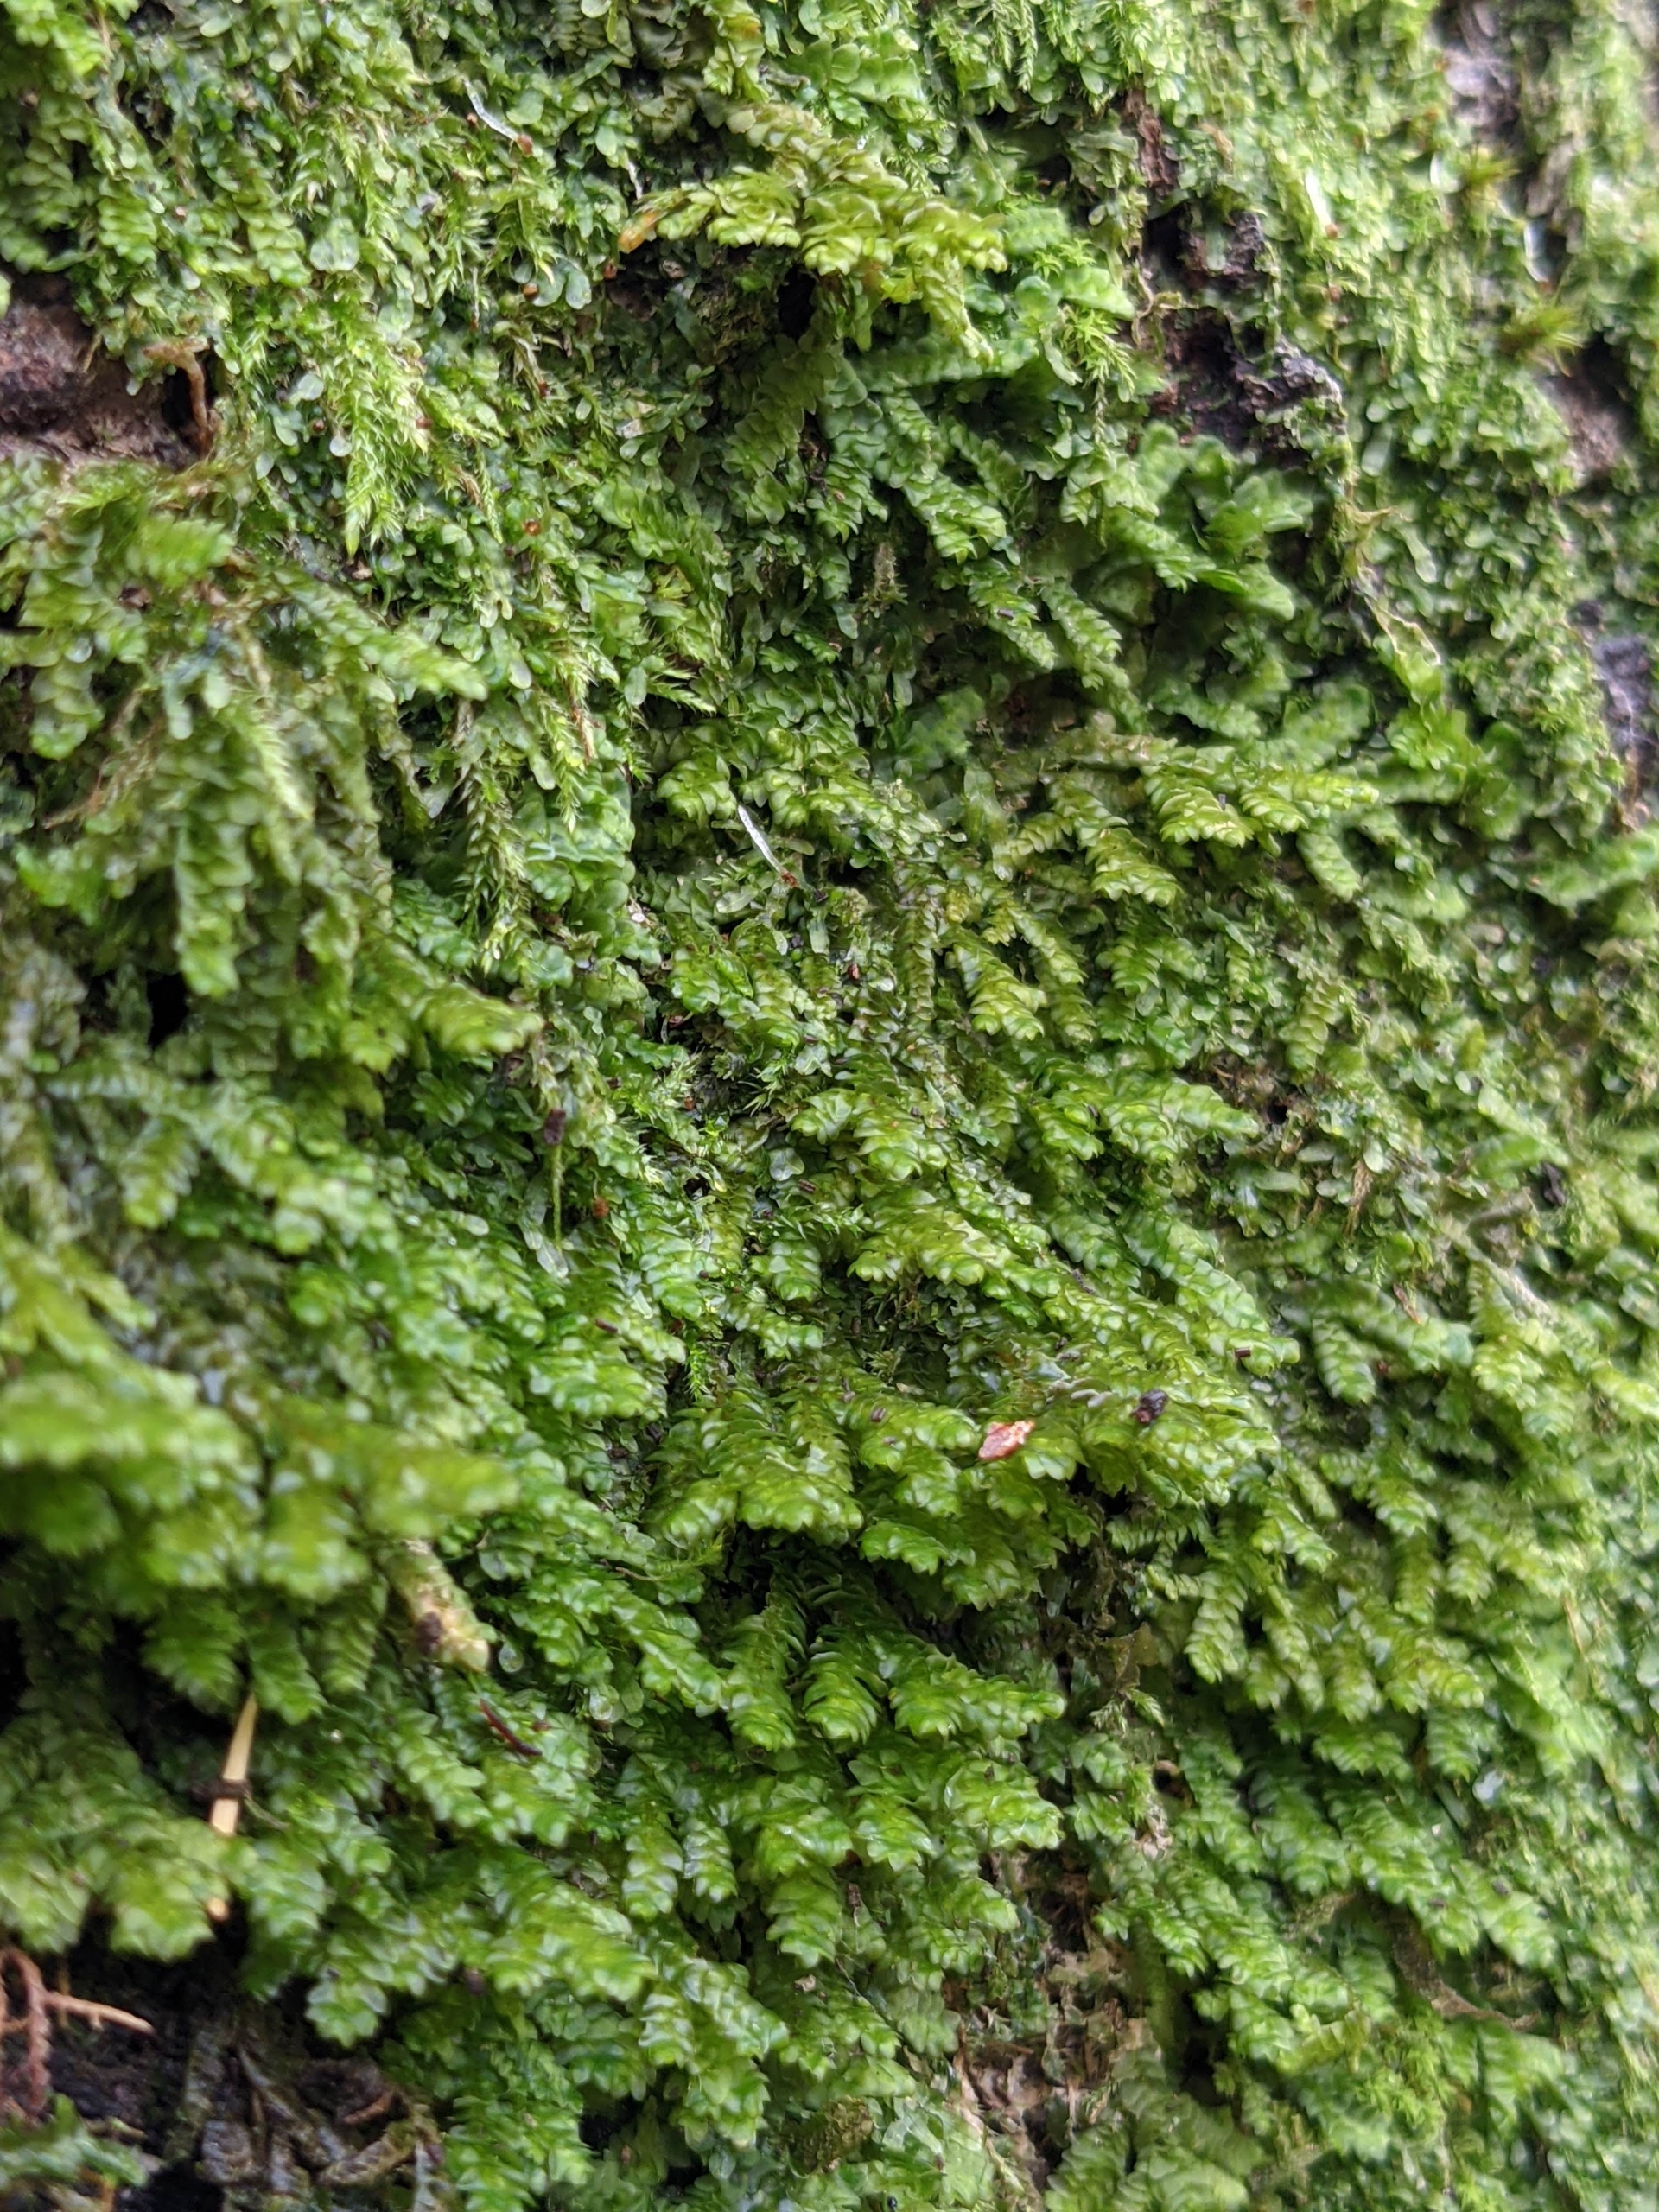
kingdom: Plantae
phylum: Marchantiophyta
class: Jungermanniopsida
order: Porellales
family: Porellaceae
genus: Porella
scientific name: Porella platyphylla
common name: Almindelig skælryg
